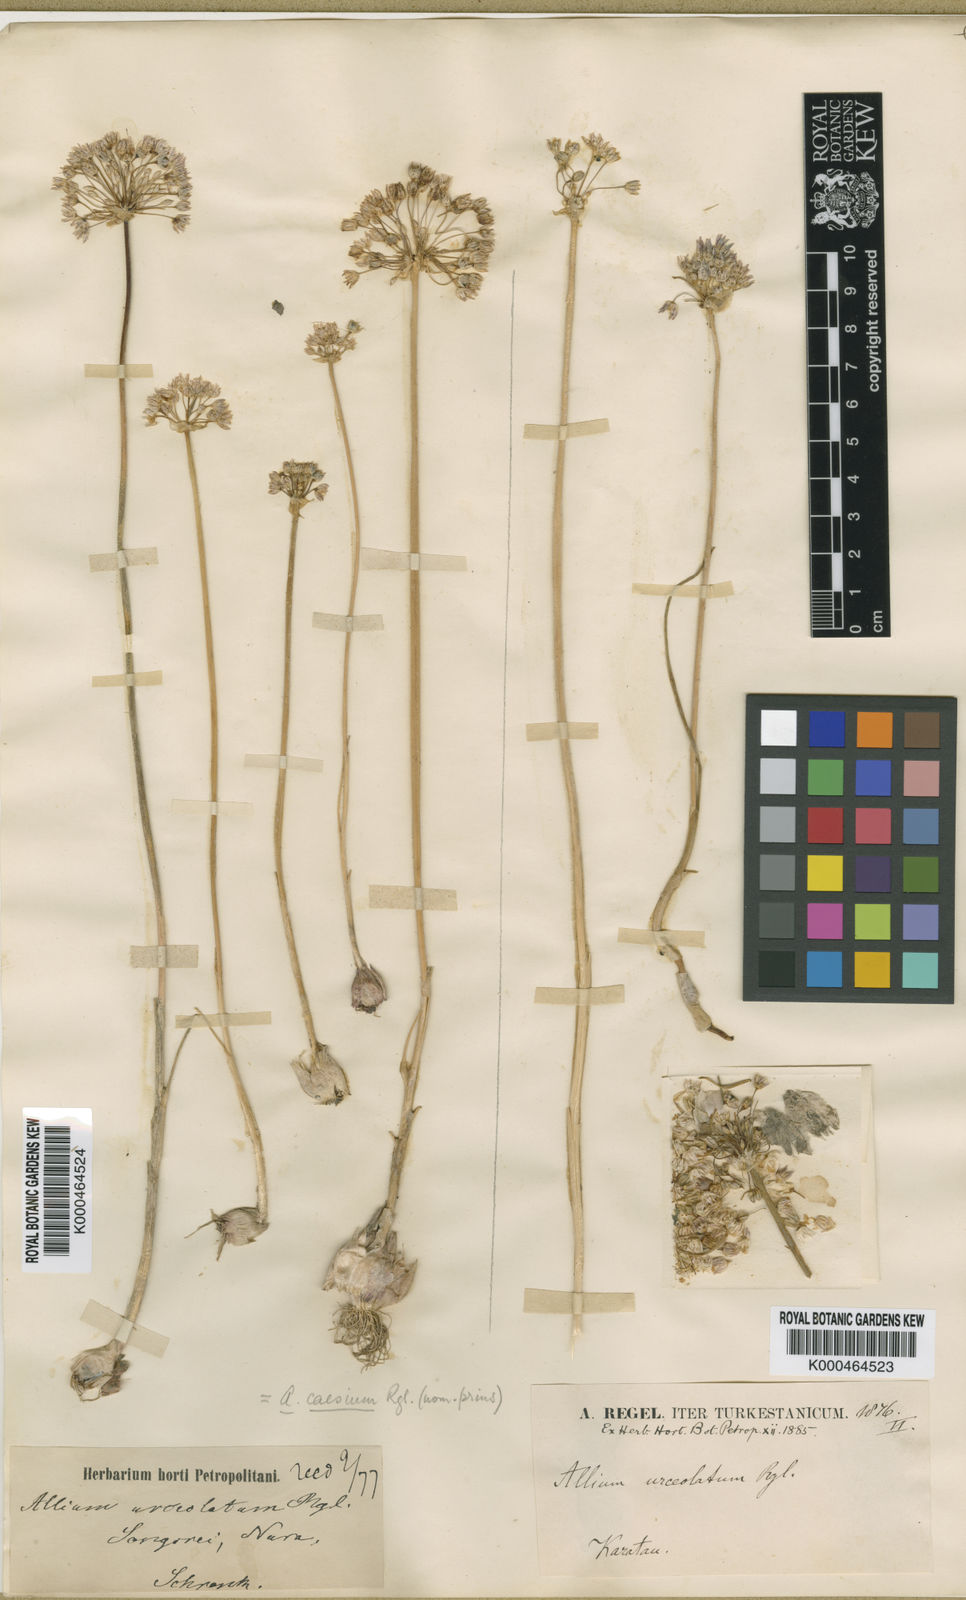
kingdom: Plantae
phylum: Tracheophyta
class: Liliopsida
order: Asparagales
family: Amaryllidaceae
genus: Allium
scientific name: Allium caesium
